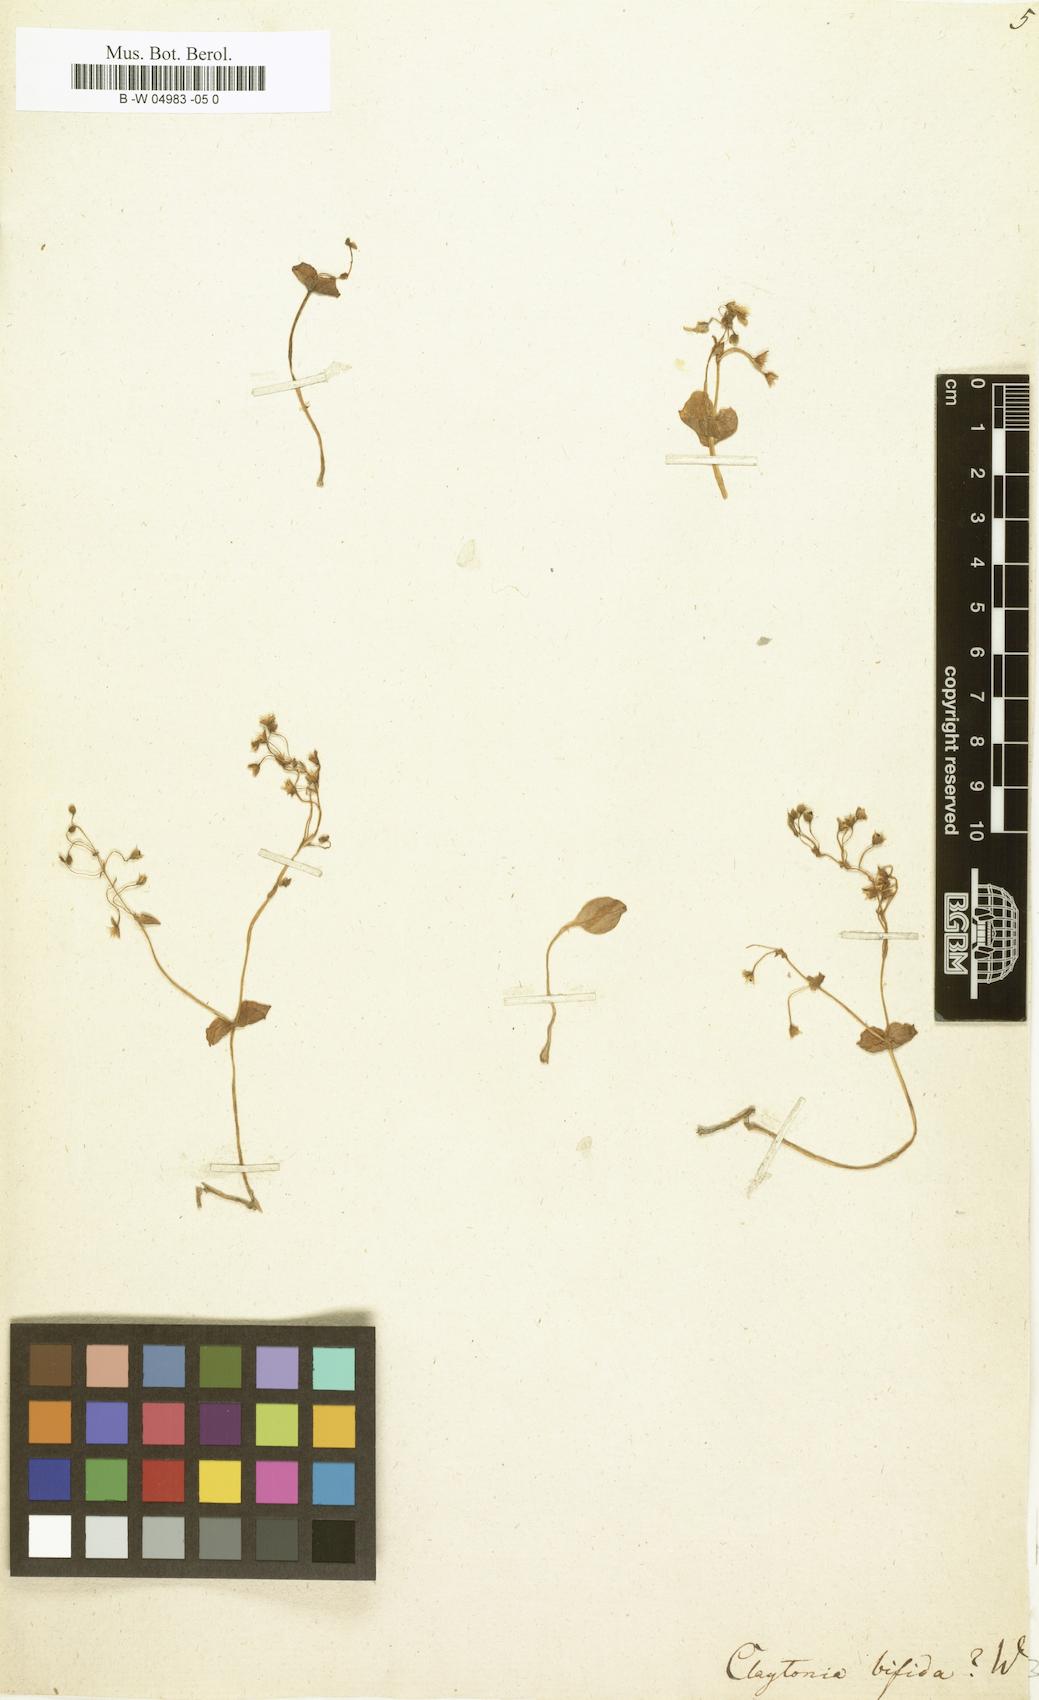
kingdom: Plantae
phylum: Tracheophyta
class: Magnoliopsida
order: Caryophyllales
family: Montiaceae
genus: Claytonia
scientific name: Claytonia sibirica
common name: Pink purslane
